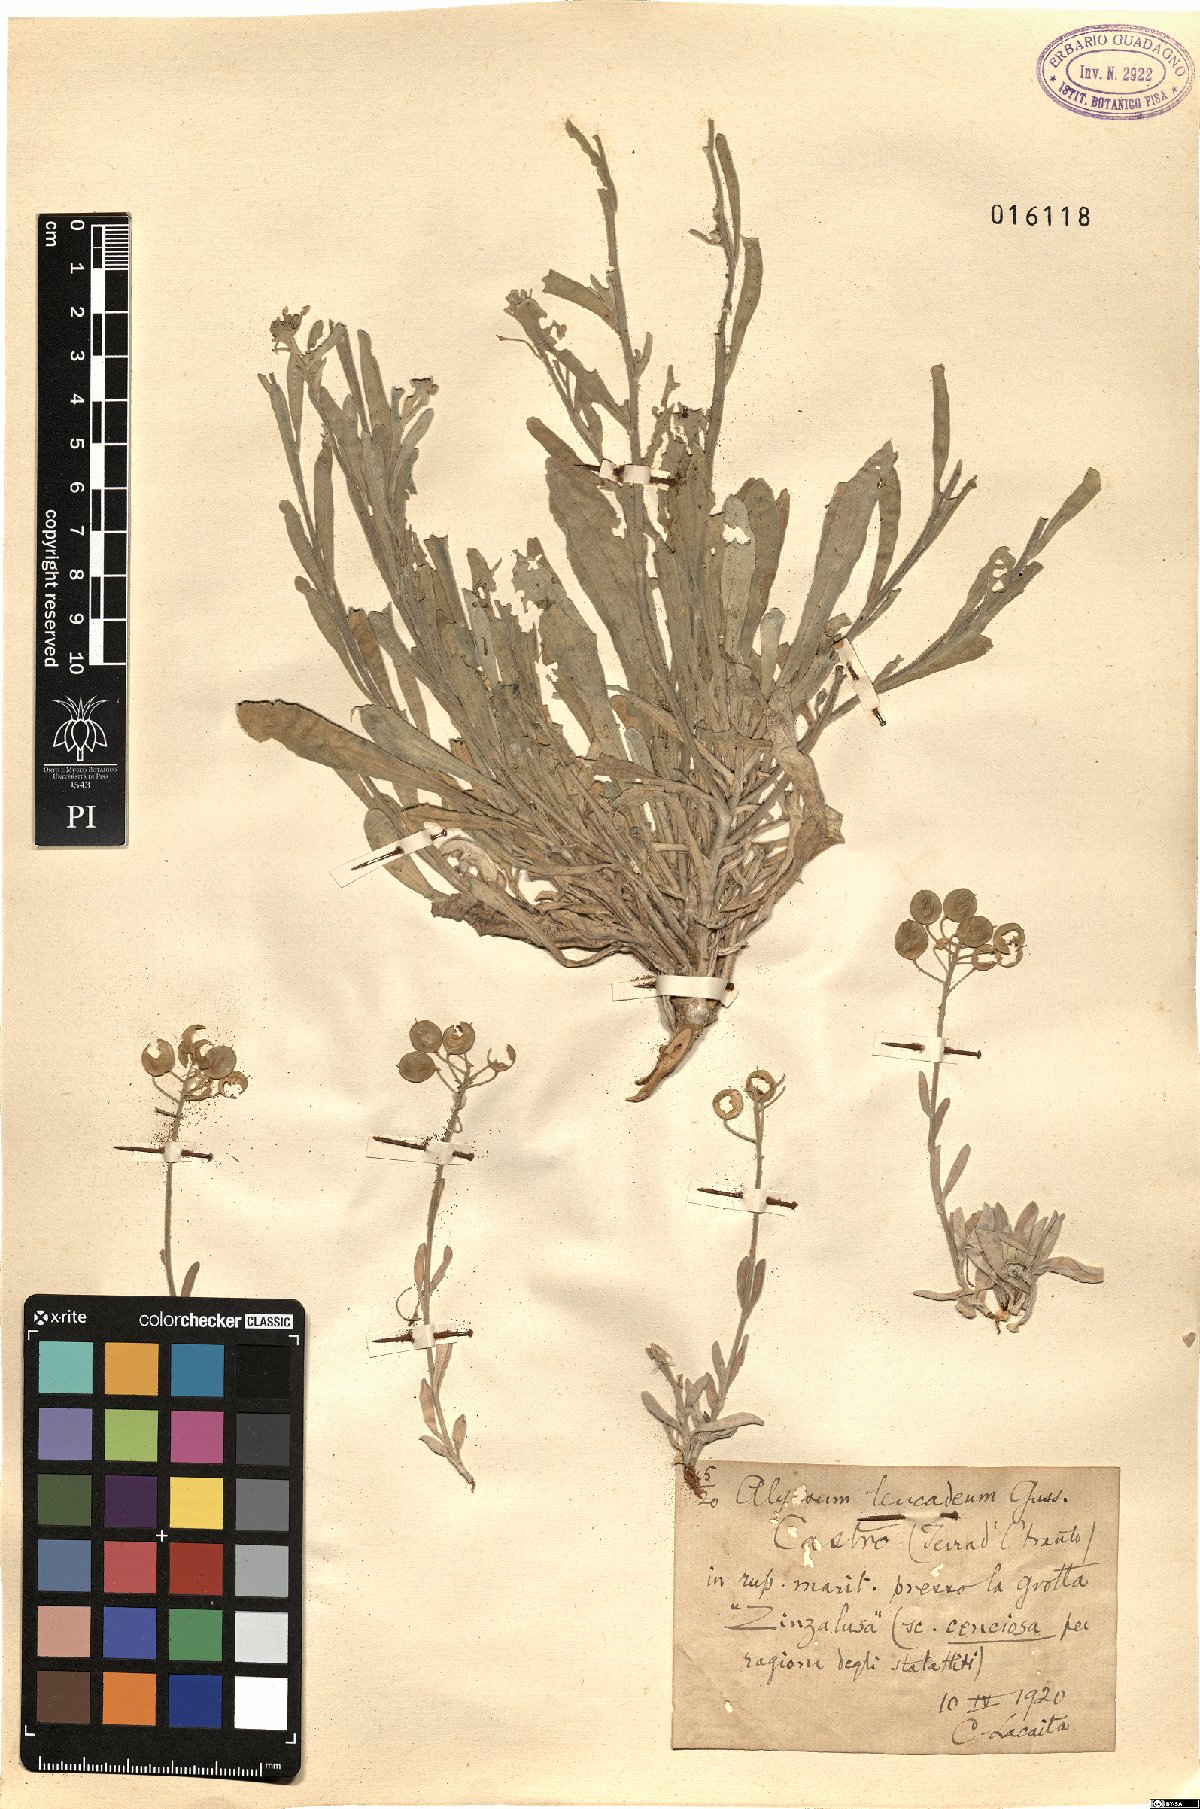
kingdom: Plantae
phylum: Tracheophyta
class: Magnoliopsida
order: Brassicales
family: Brassicaceae
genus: Aurinia
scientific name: Aurinia leucadea
